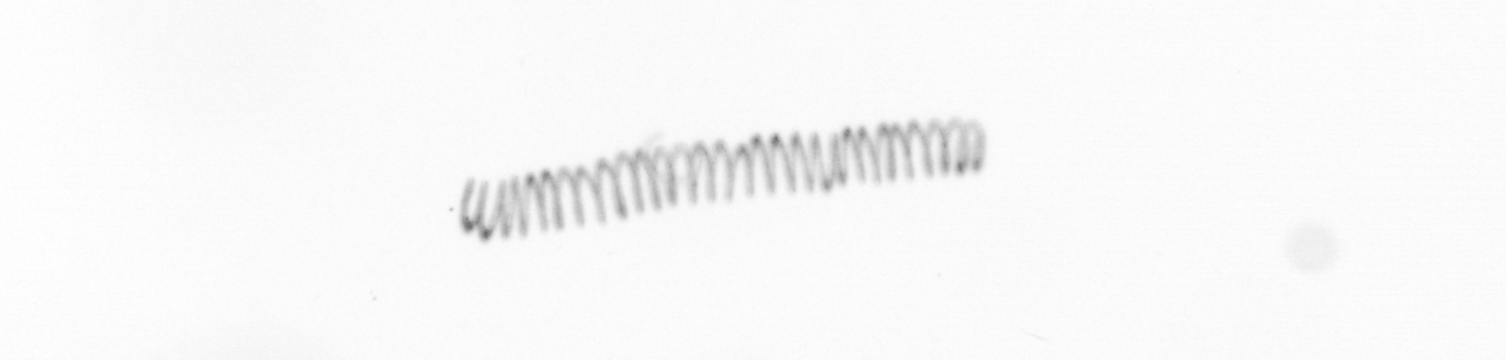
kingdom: Chromista
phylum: Ochrophyta
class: Bacillariophyceae
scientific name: Bacillariophyceae
